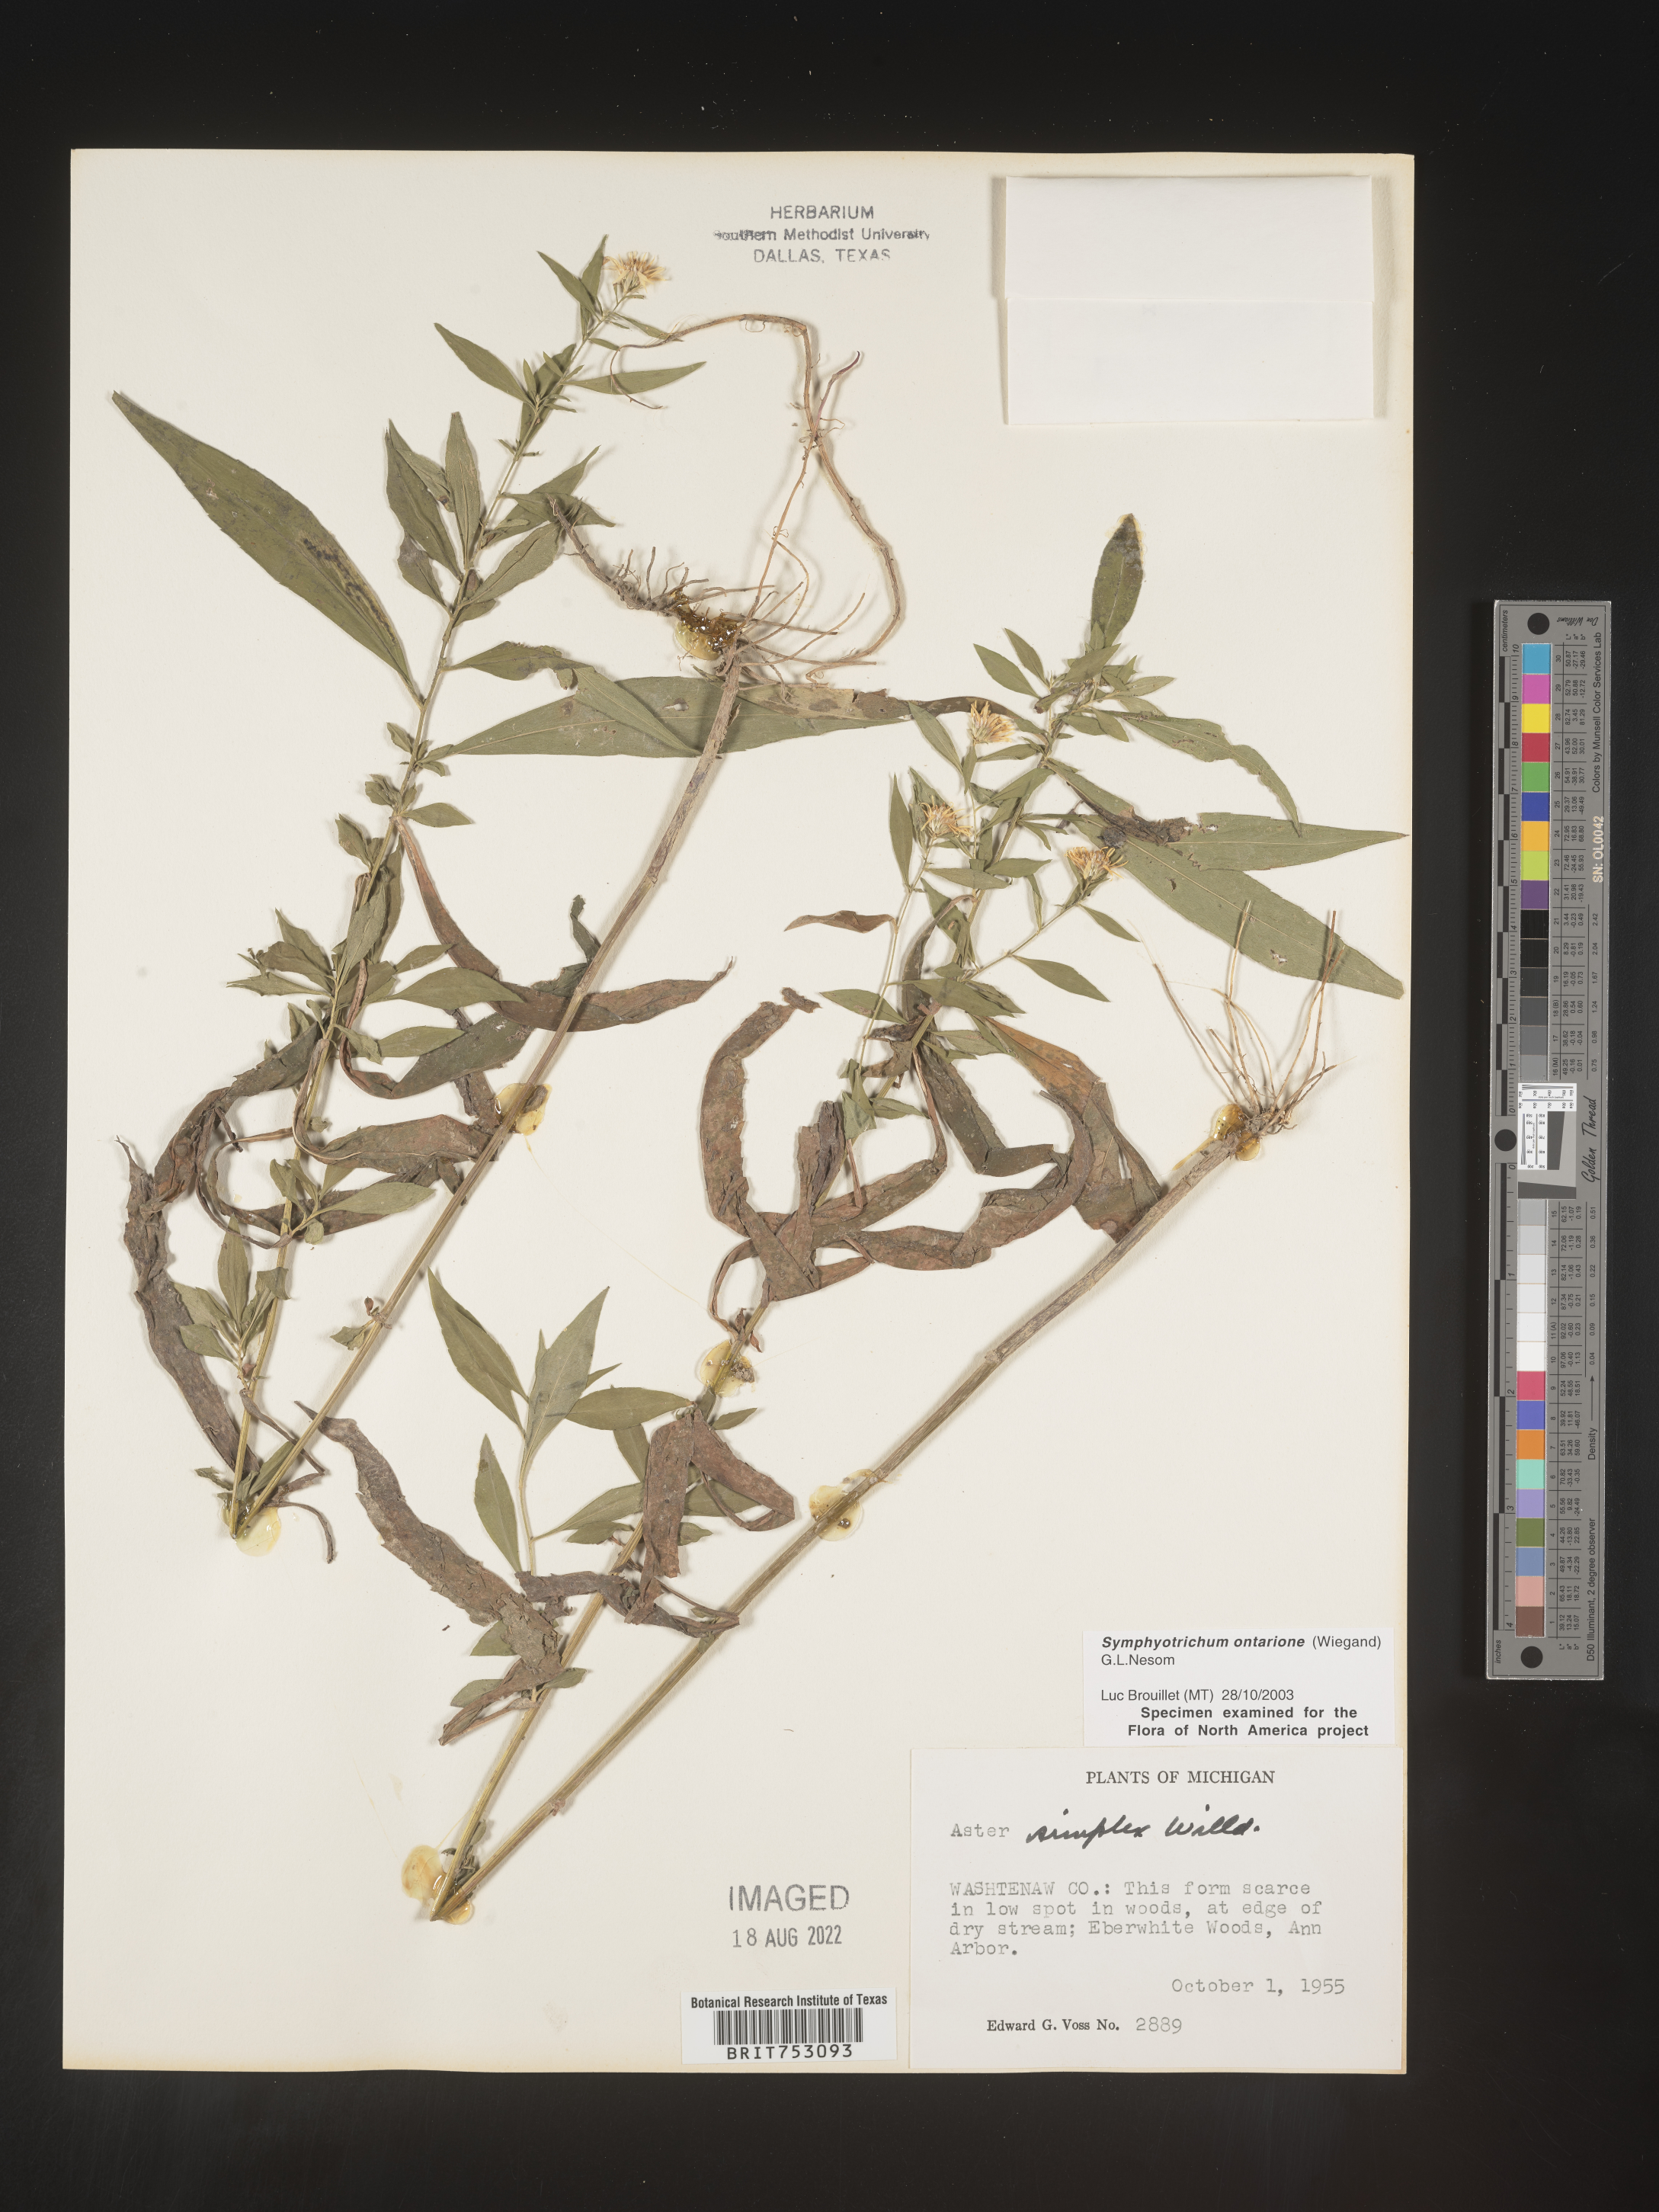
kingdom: Plantae
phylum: Tracheophyta
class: Magnoliopsida
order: Asterales
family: Asteraceae
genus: Symphyotrichum
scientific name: Symphyotrichum ontarionis
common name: Bottomland aster
